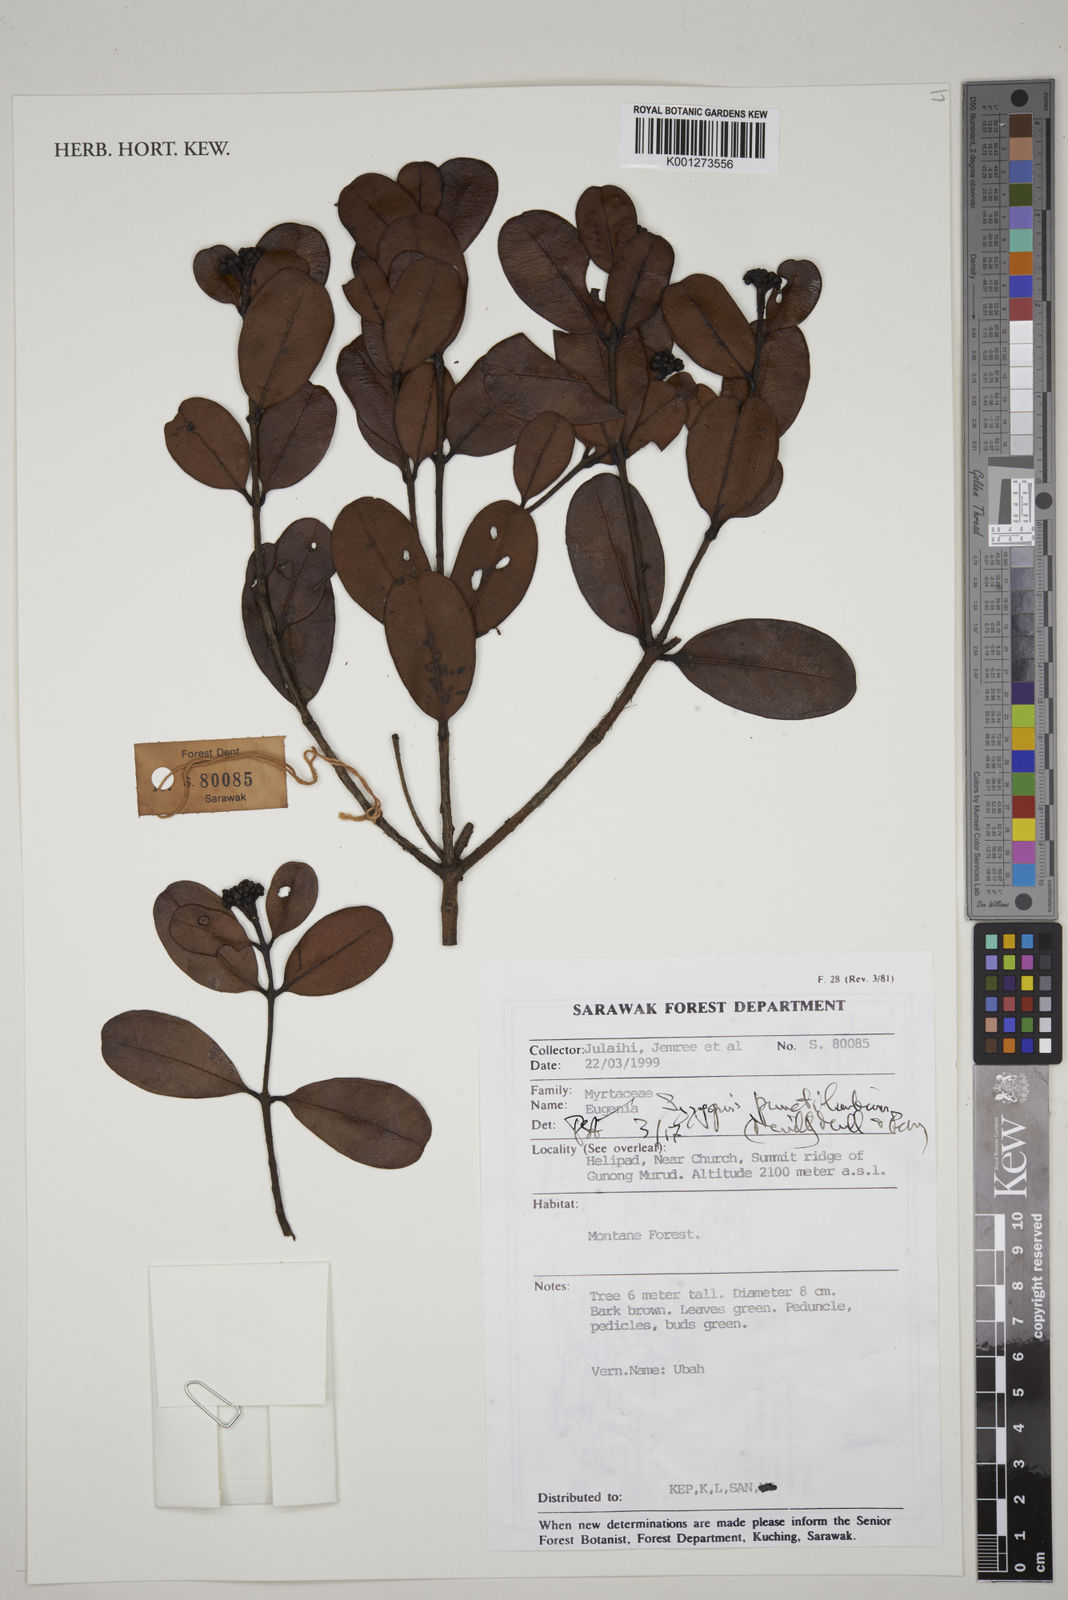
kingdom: Plantae
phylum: Tracheophyta
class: Magnoliopsida
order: Myrtales
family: Myrtaceae
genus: Syzygium
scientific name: Syzygium punctilimbum
